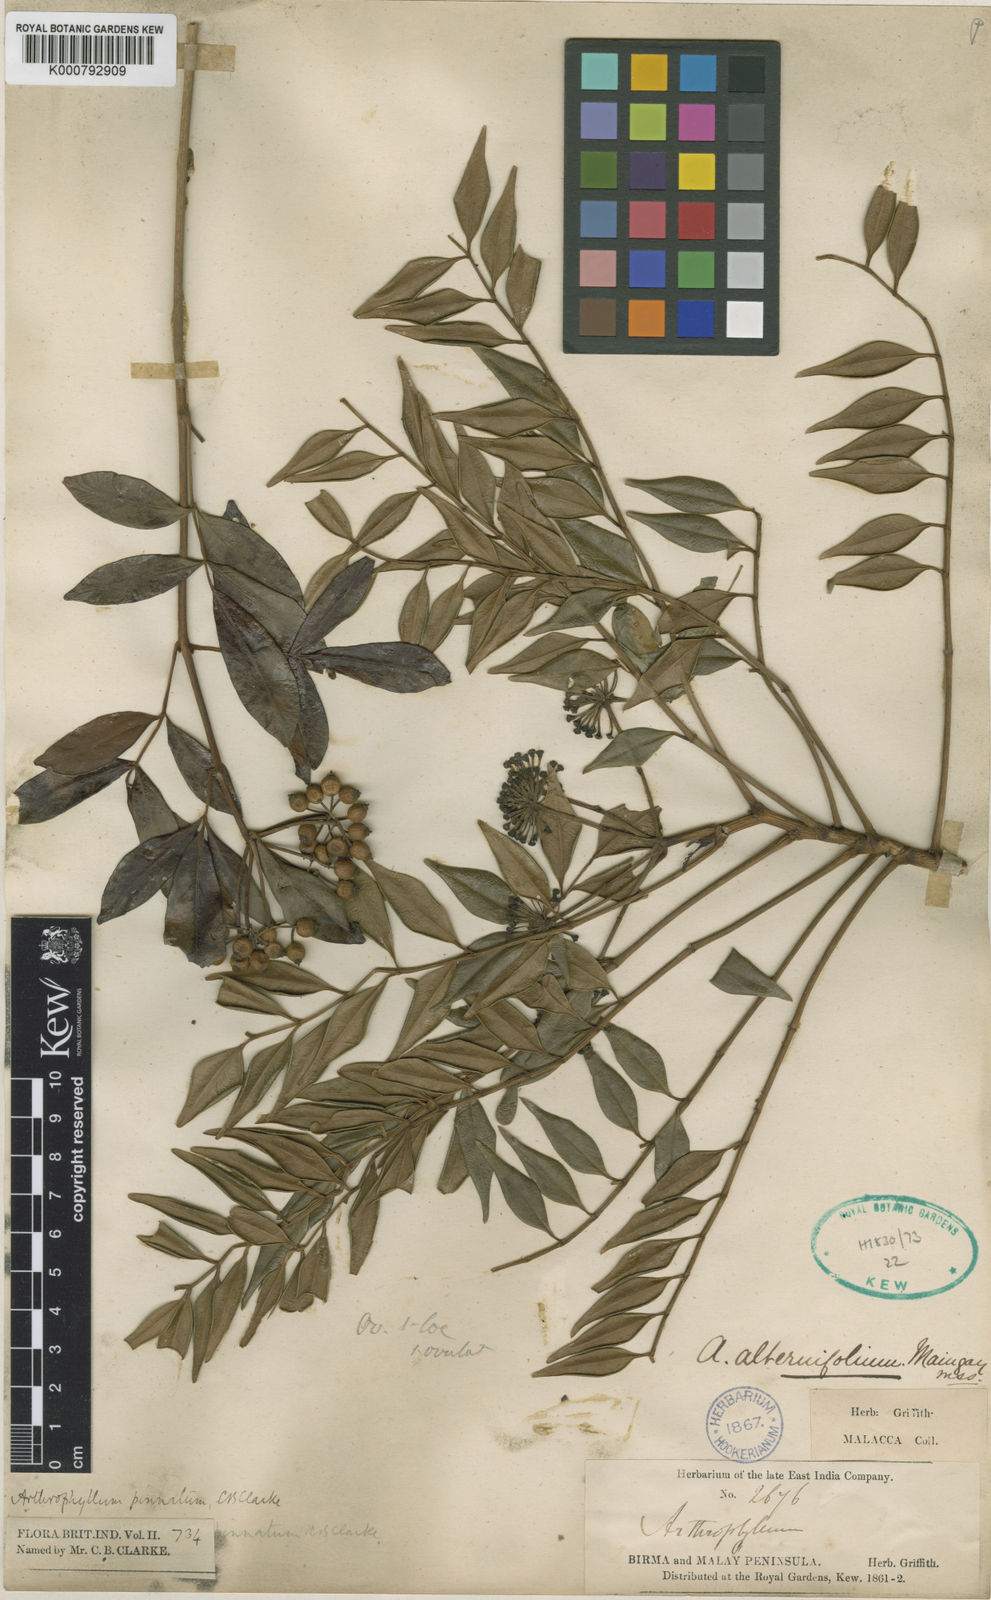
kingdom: Plantae
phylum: Tracheophyta
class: Magnoliopsida
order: Apiales
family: Araliaceae
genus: Polyscias
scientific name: Polyscias alternifolia
